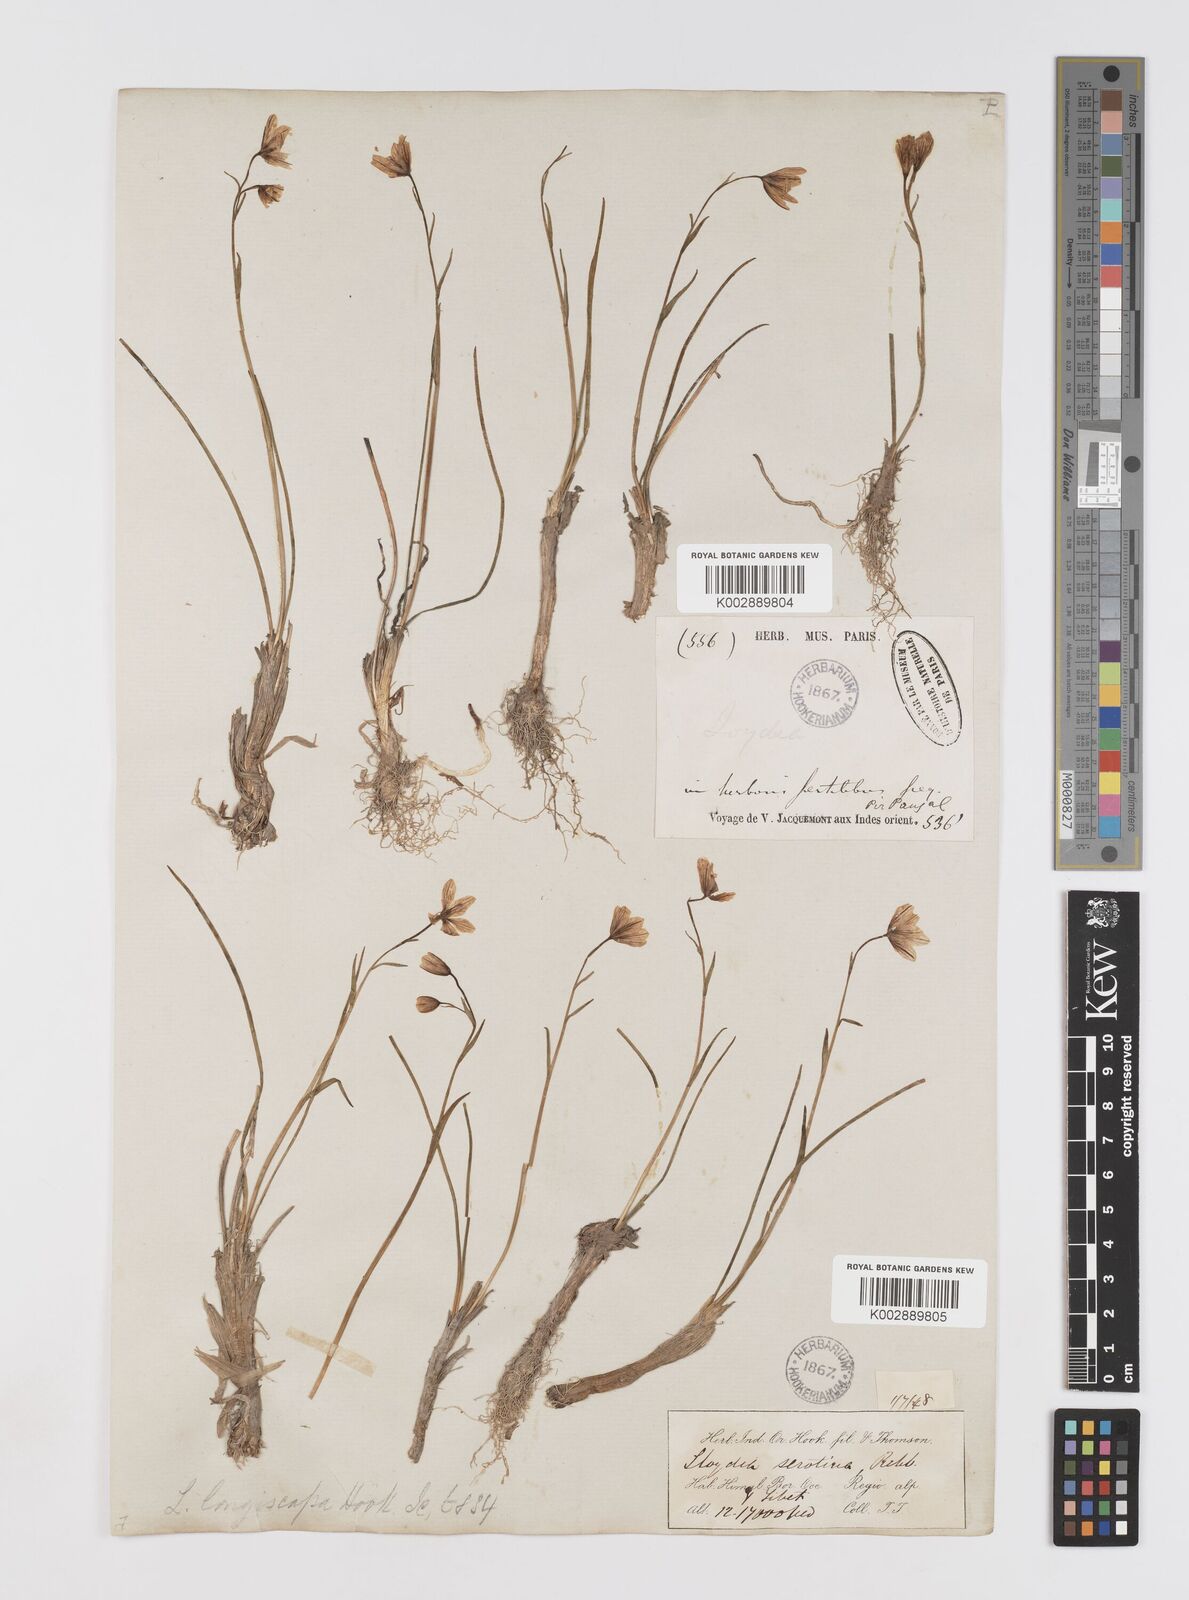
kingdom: Plantae
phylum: Tracheophyta
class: Liliopsida
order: Liliales
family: Liliaceae
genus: Gagea
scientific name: Gagea serotina
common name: Snowdon lily
